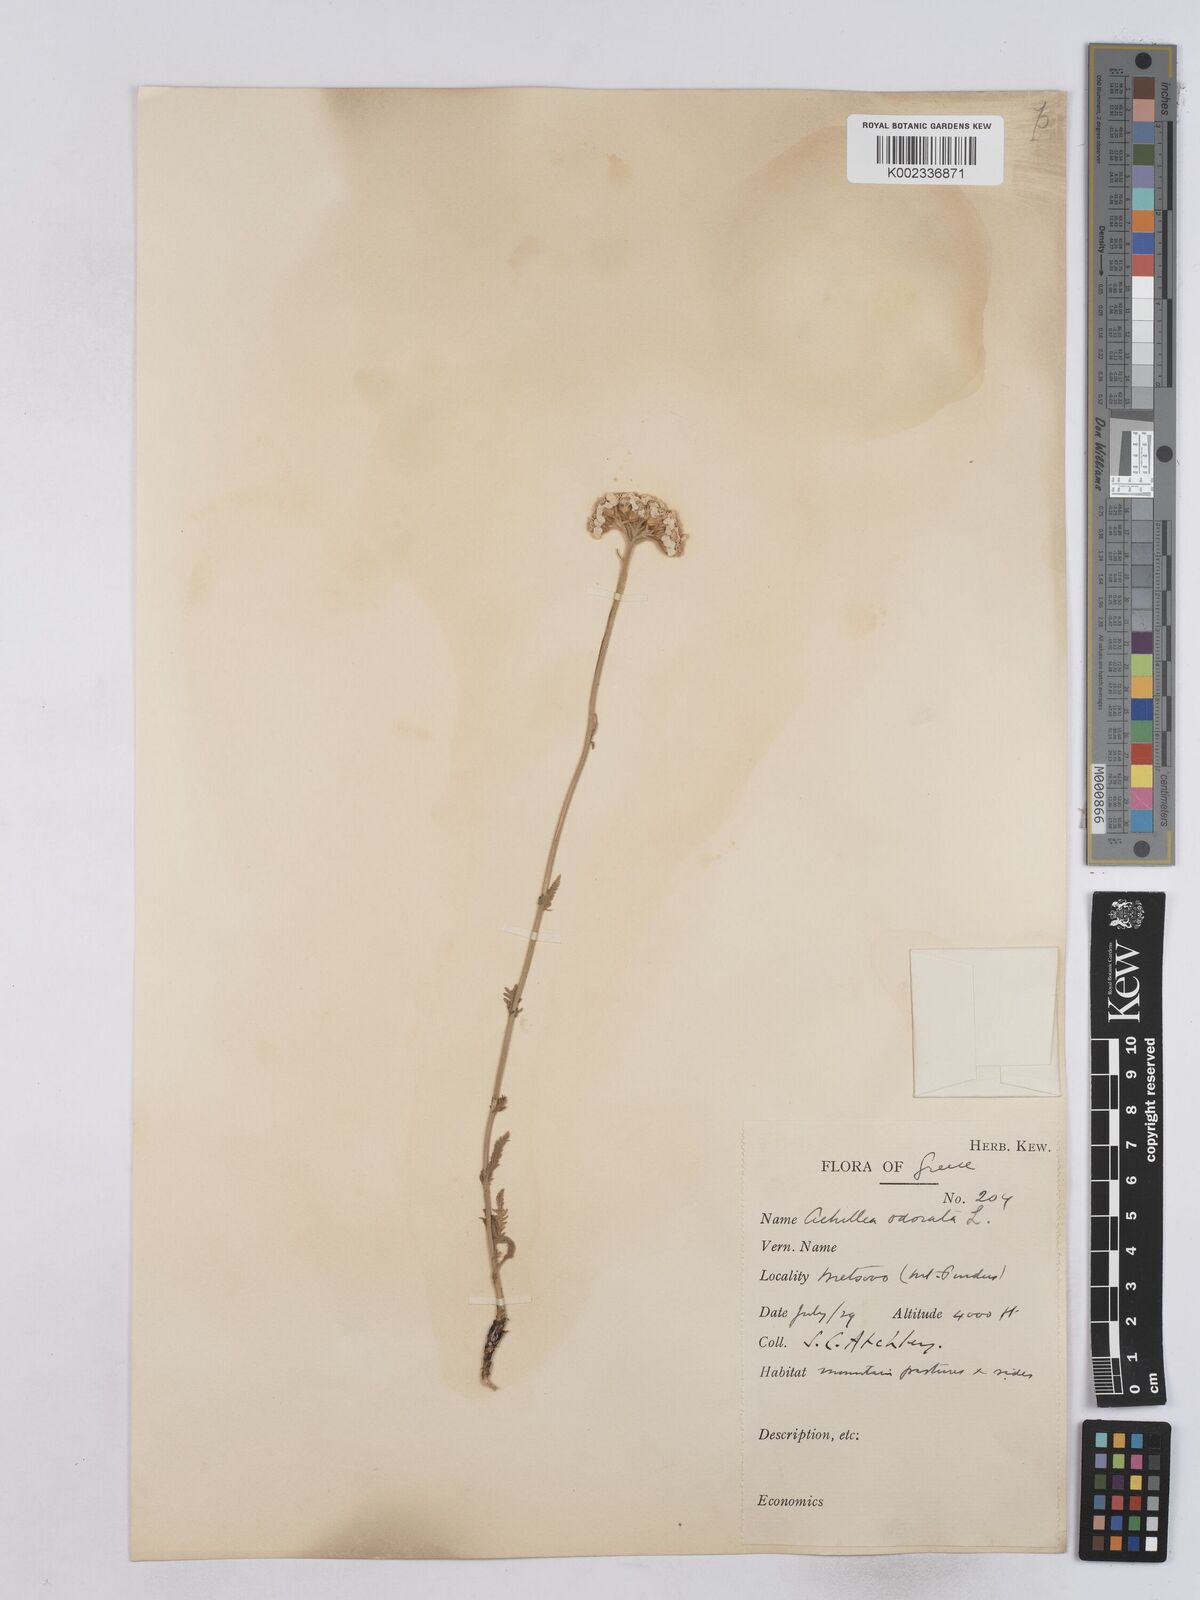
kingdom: Plantae
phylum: Tracheophyta
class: Magnoliopsida
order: Asterales
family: Asteraceae
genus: Achillea
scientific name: Achillea odorata
